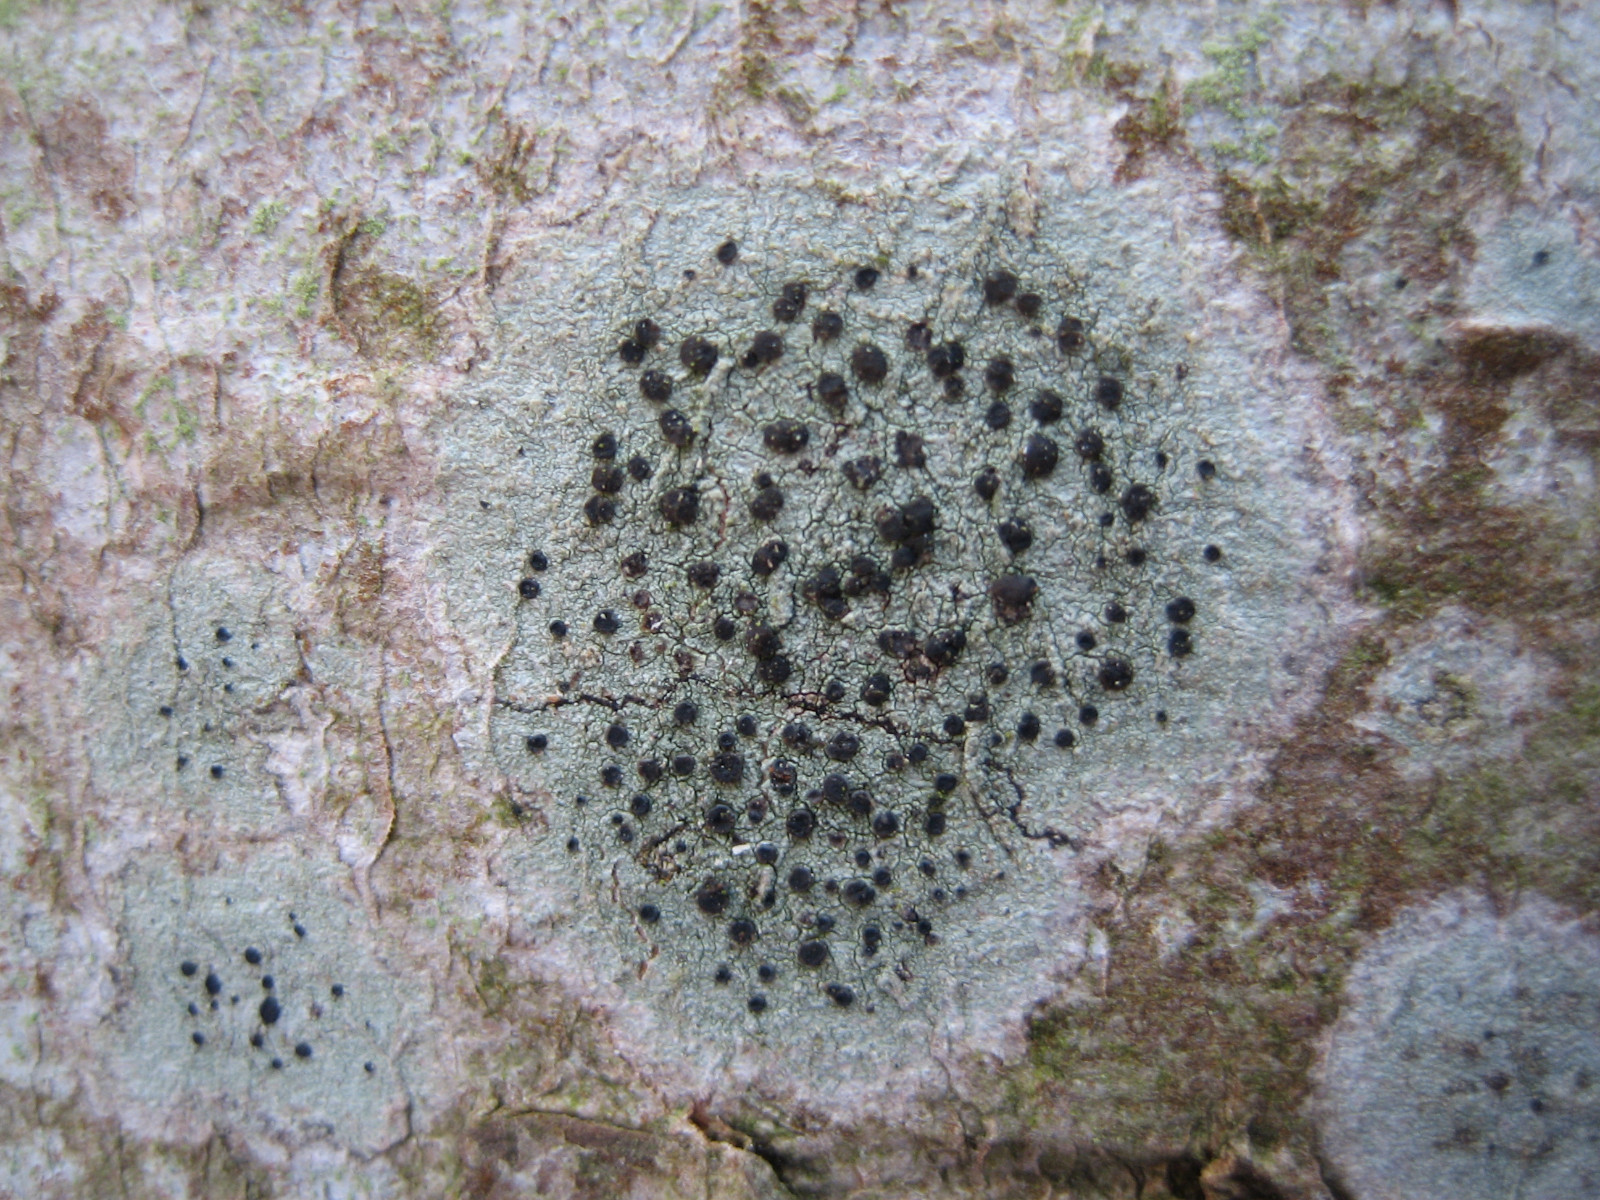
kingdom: Fungi
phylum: Ascomycota
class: Lecanoromycetes
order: Lecanorales
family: Lecanoraceae
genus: Lecidella
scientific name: Lecidella elaeochroma
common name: grågrøn skivelav
